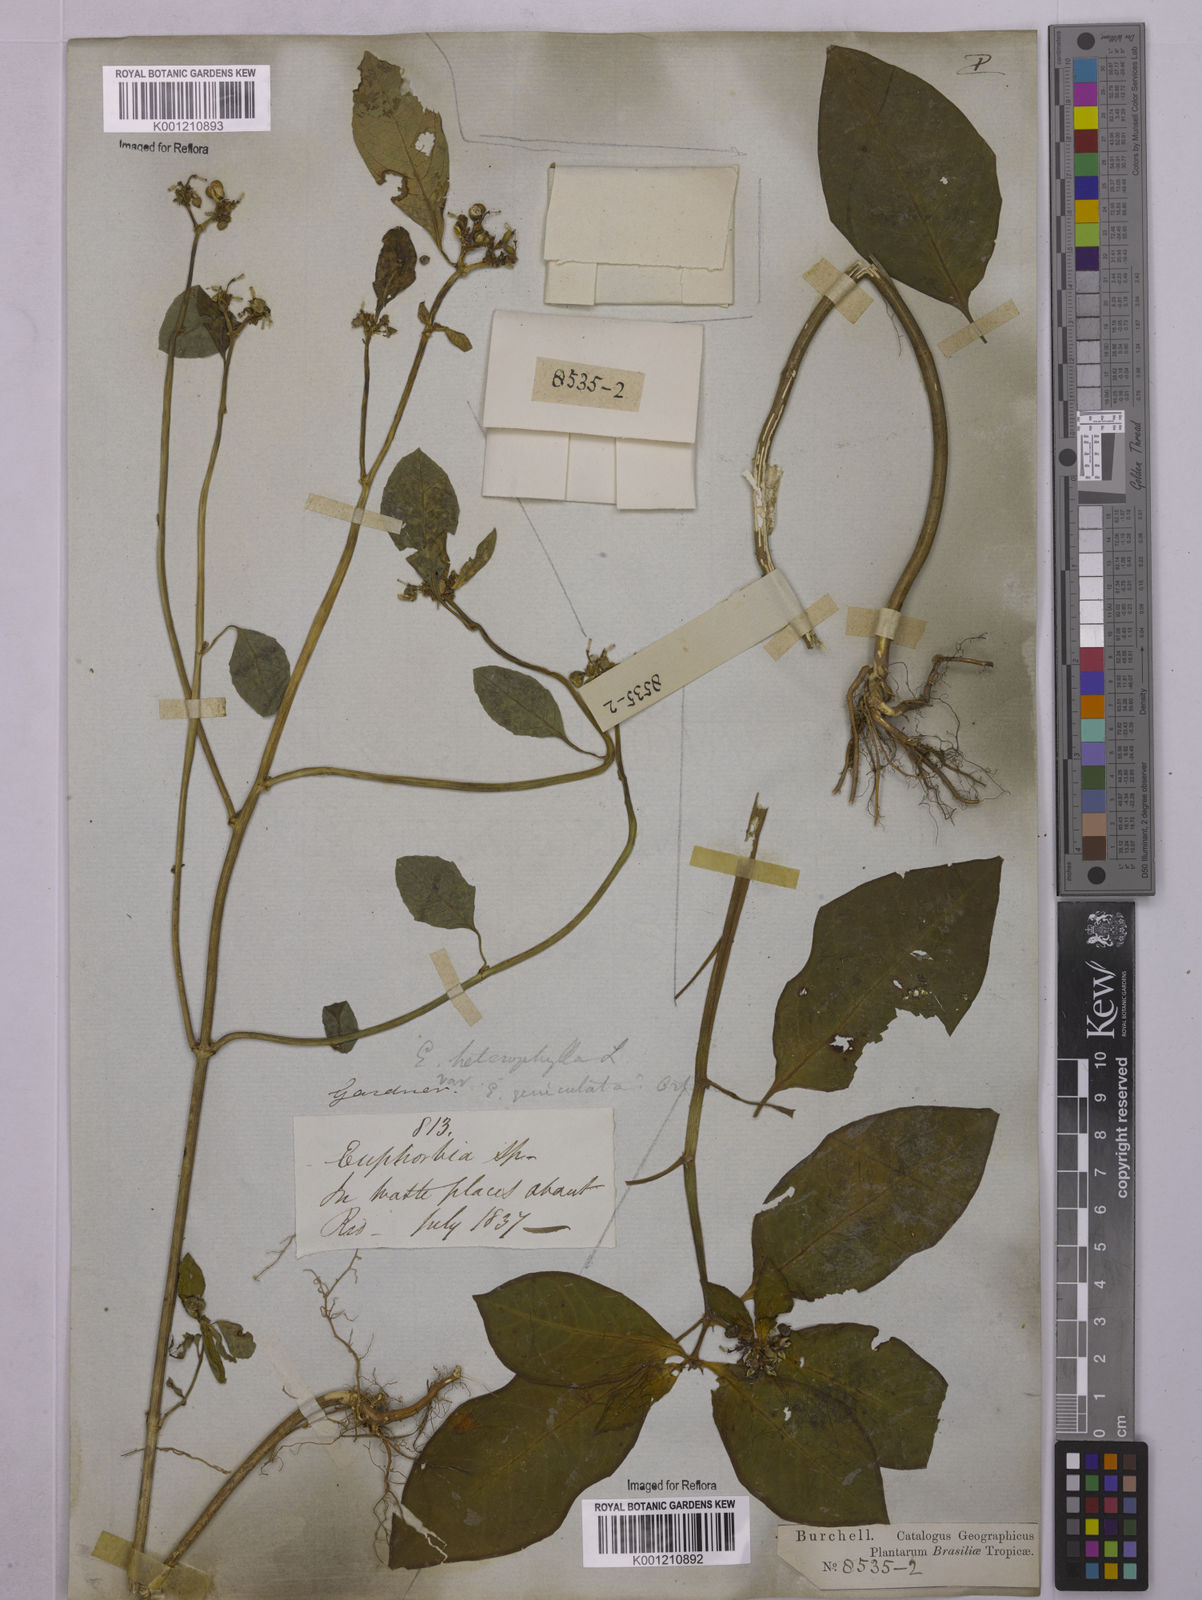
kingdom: Plantae
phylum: Tracheophyta
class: Magnoliopsida
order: Malpighiales
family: Euphorbiaceae
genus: Euphorbia
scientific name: Euphorbia heterophylla
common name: Mexican fireplant
